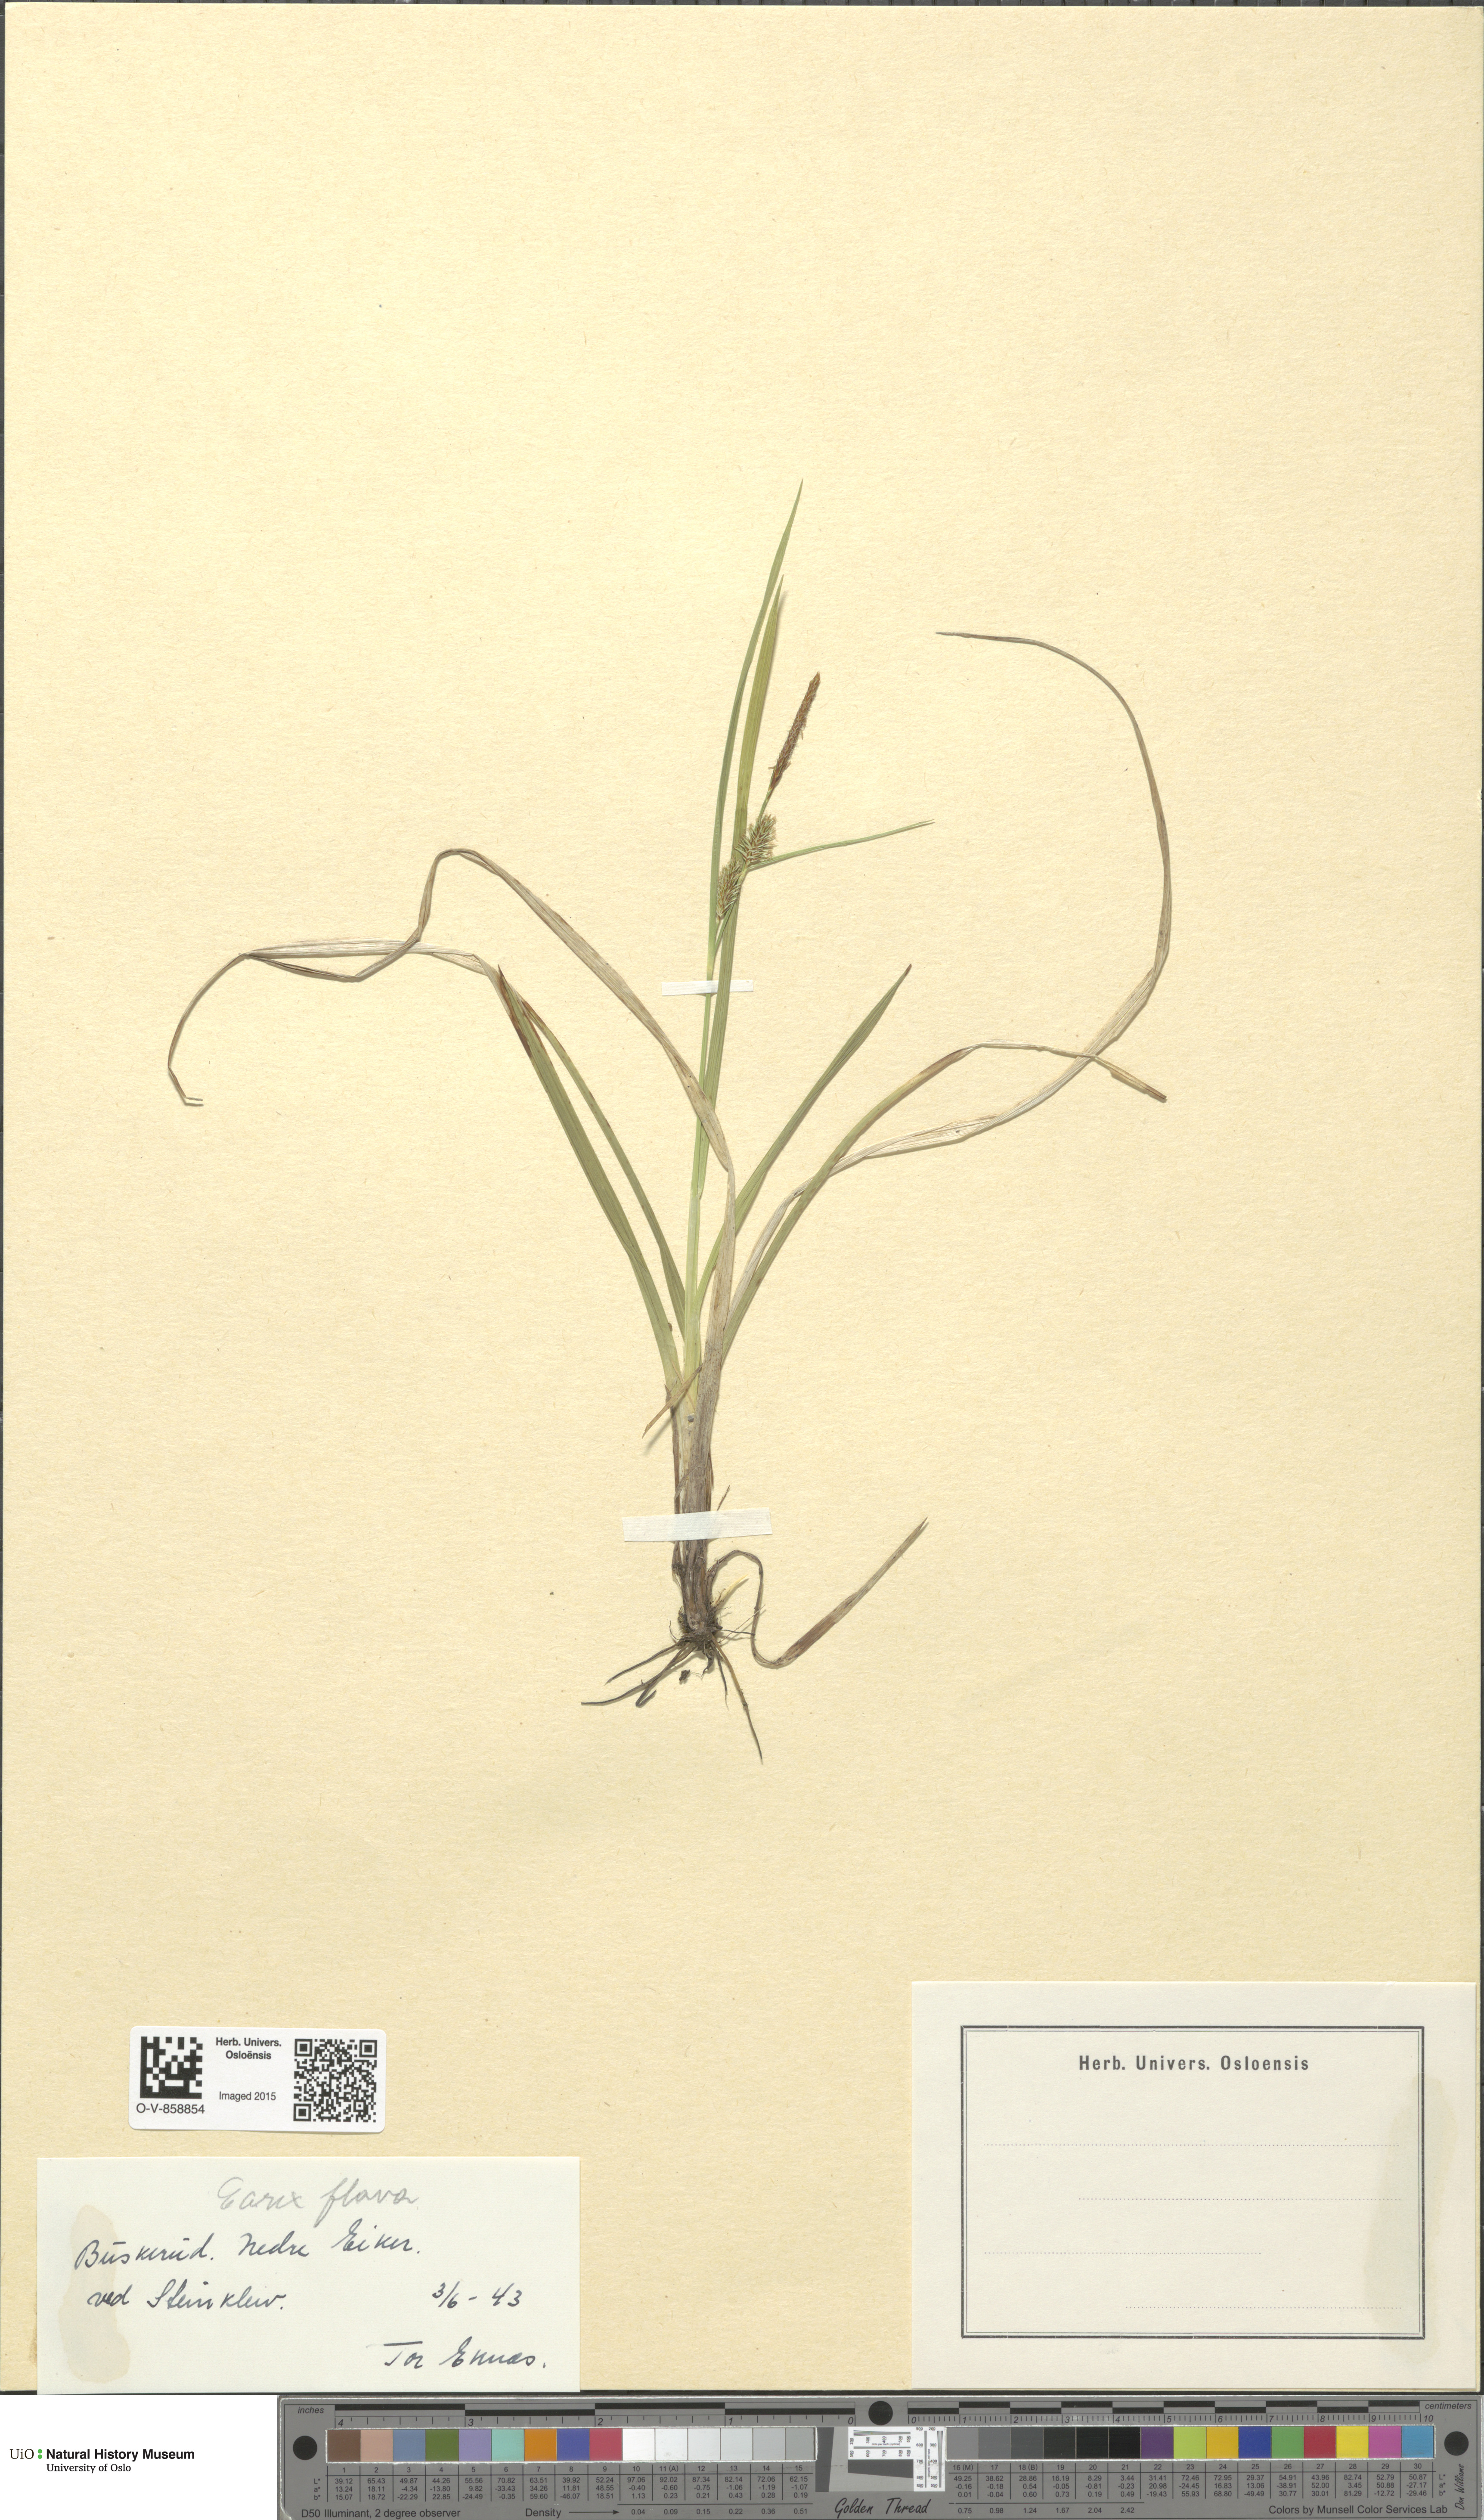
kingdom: Plantae
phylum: Tracheophyta
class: Liliopsida
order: Poales
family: Cyperaceae
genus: Carex
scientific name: Carex flava
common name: Large yellow-sedge
